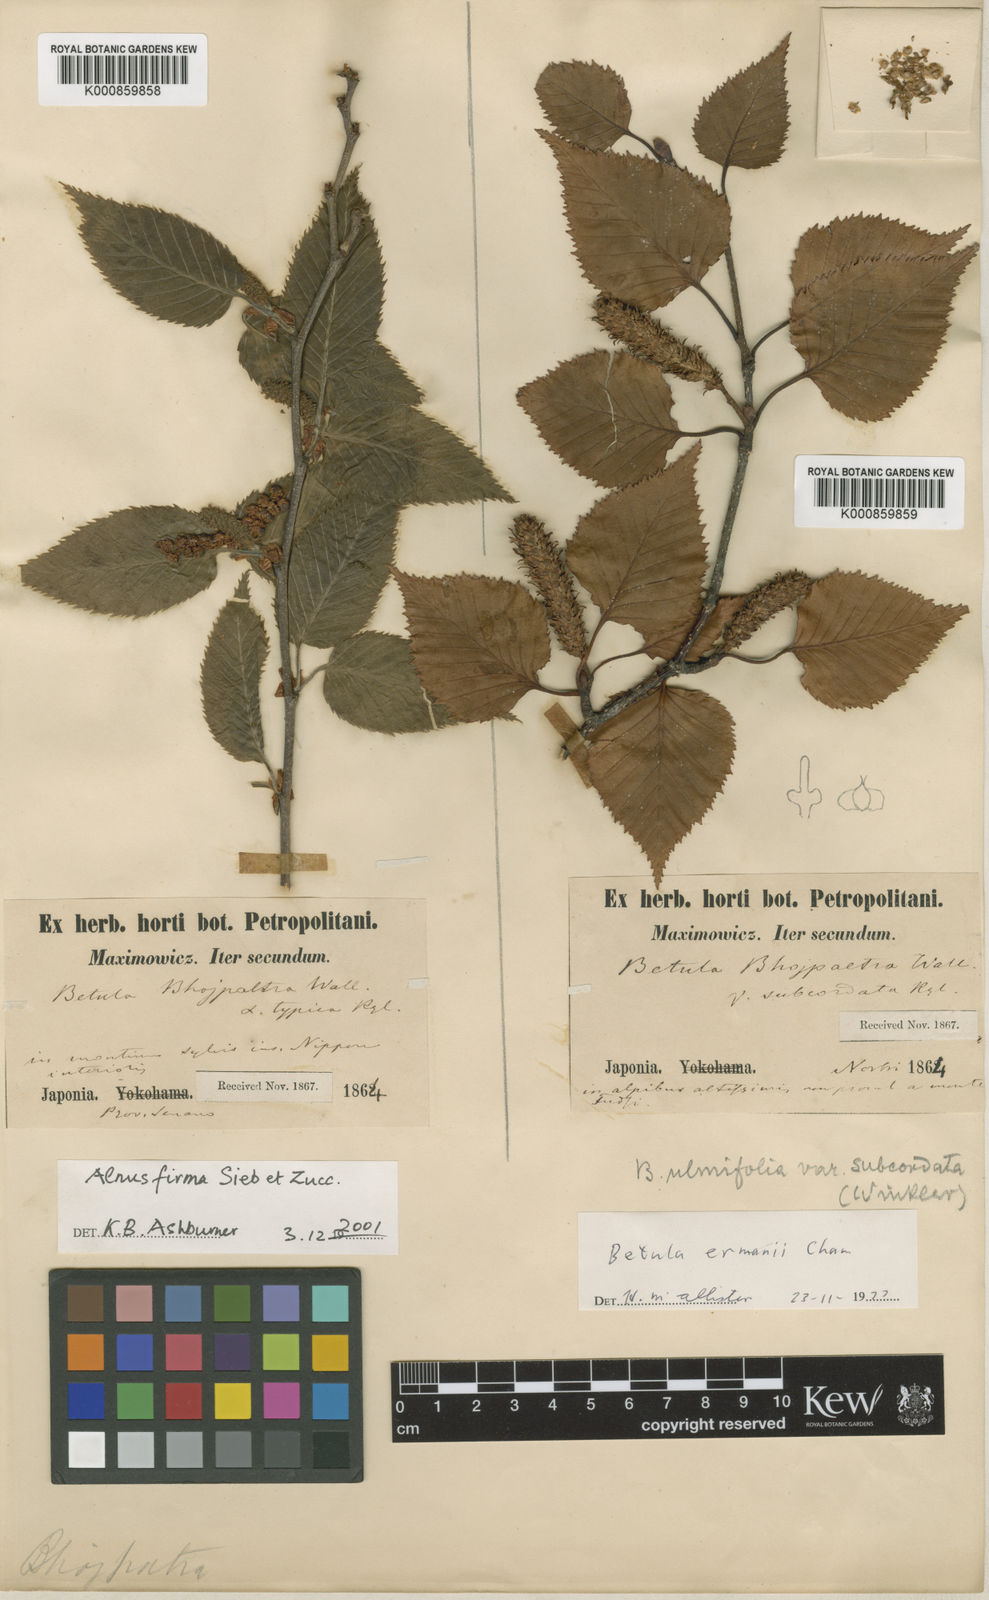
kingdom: Plantae
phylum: Tracheophyta
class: Magnoliopsida
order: Fagales
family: Betulaceae
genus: Betula
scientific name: Betula ermanii
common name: Erman's birch
